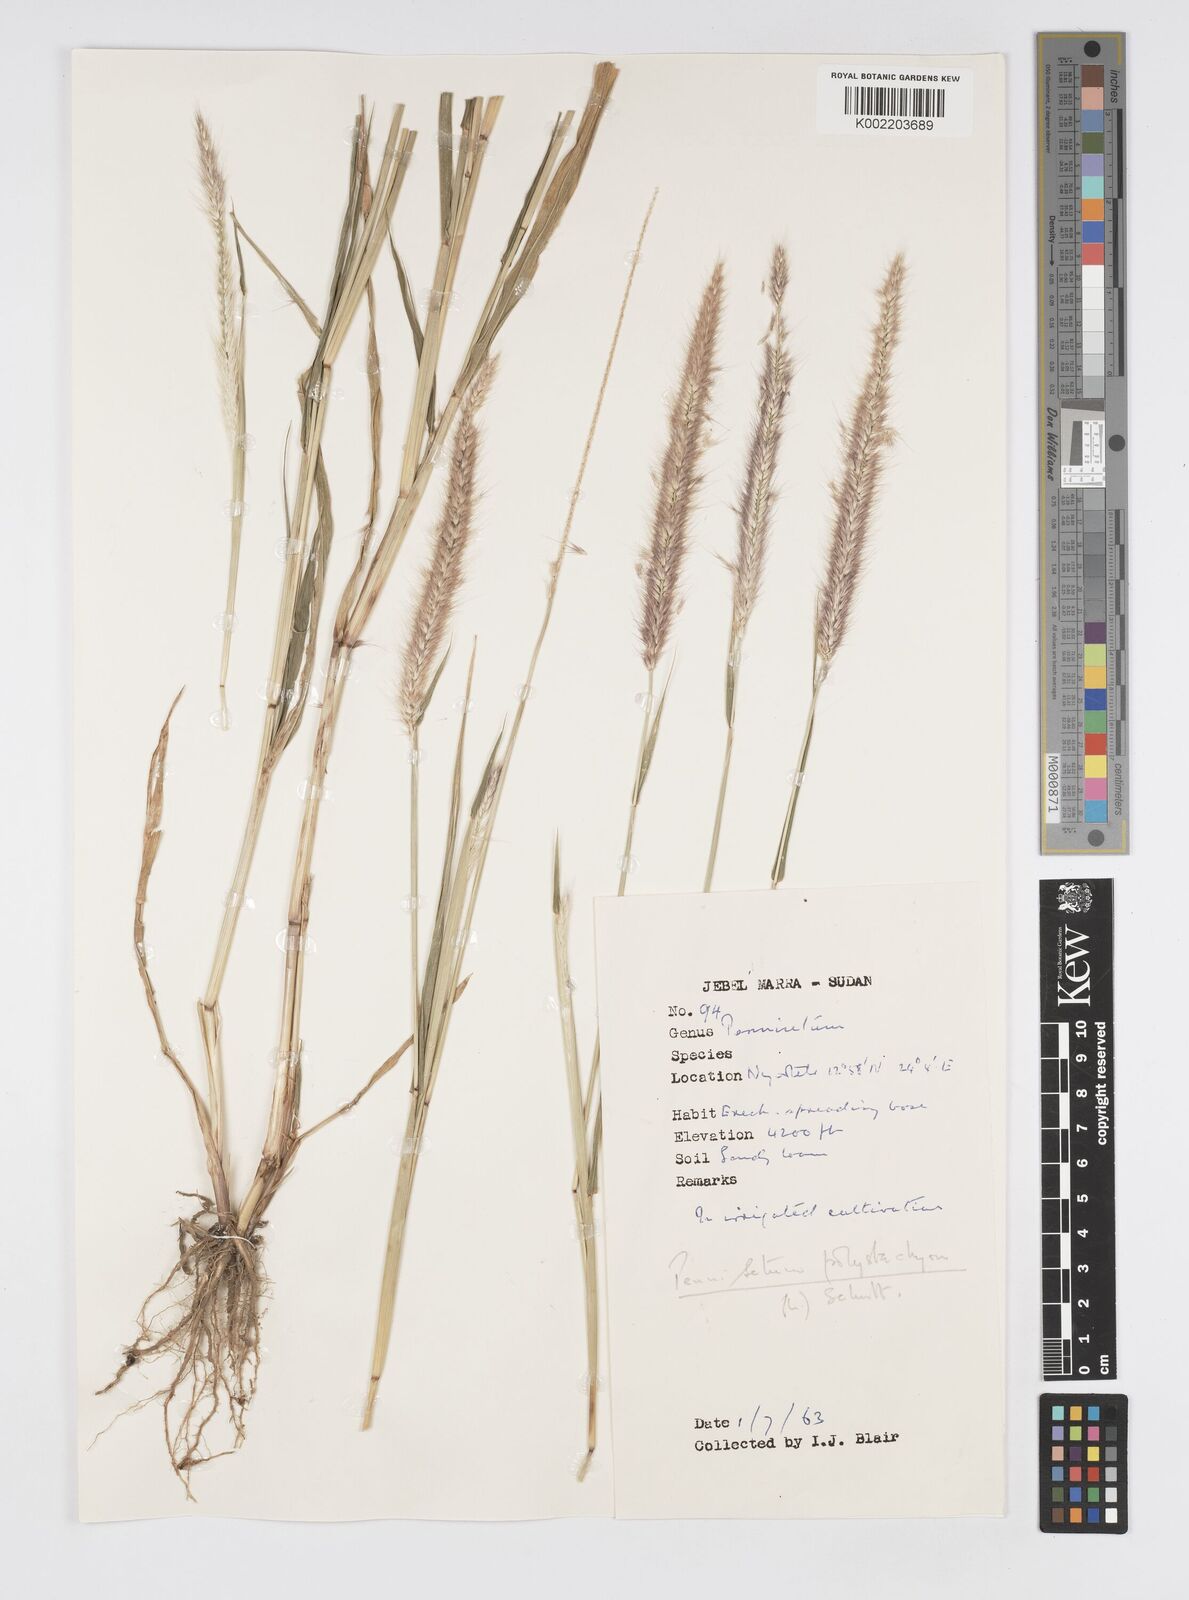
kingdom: Plantae
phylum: Tracheophyta
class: Liliopsida
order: Poales
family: Poaceae
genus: Setaria
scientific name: Setaria parviflora
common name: Knotroot bristle-grass
